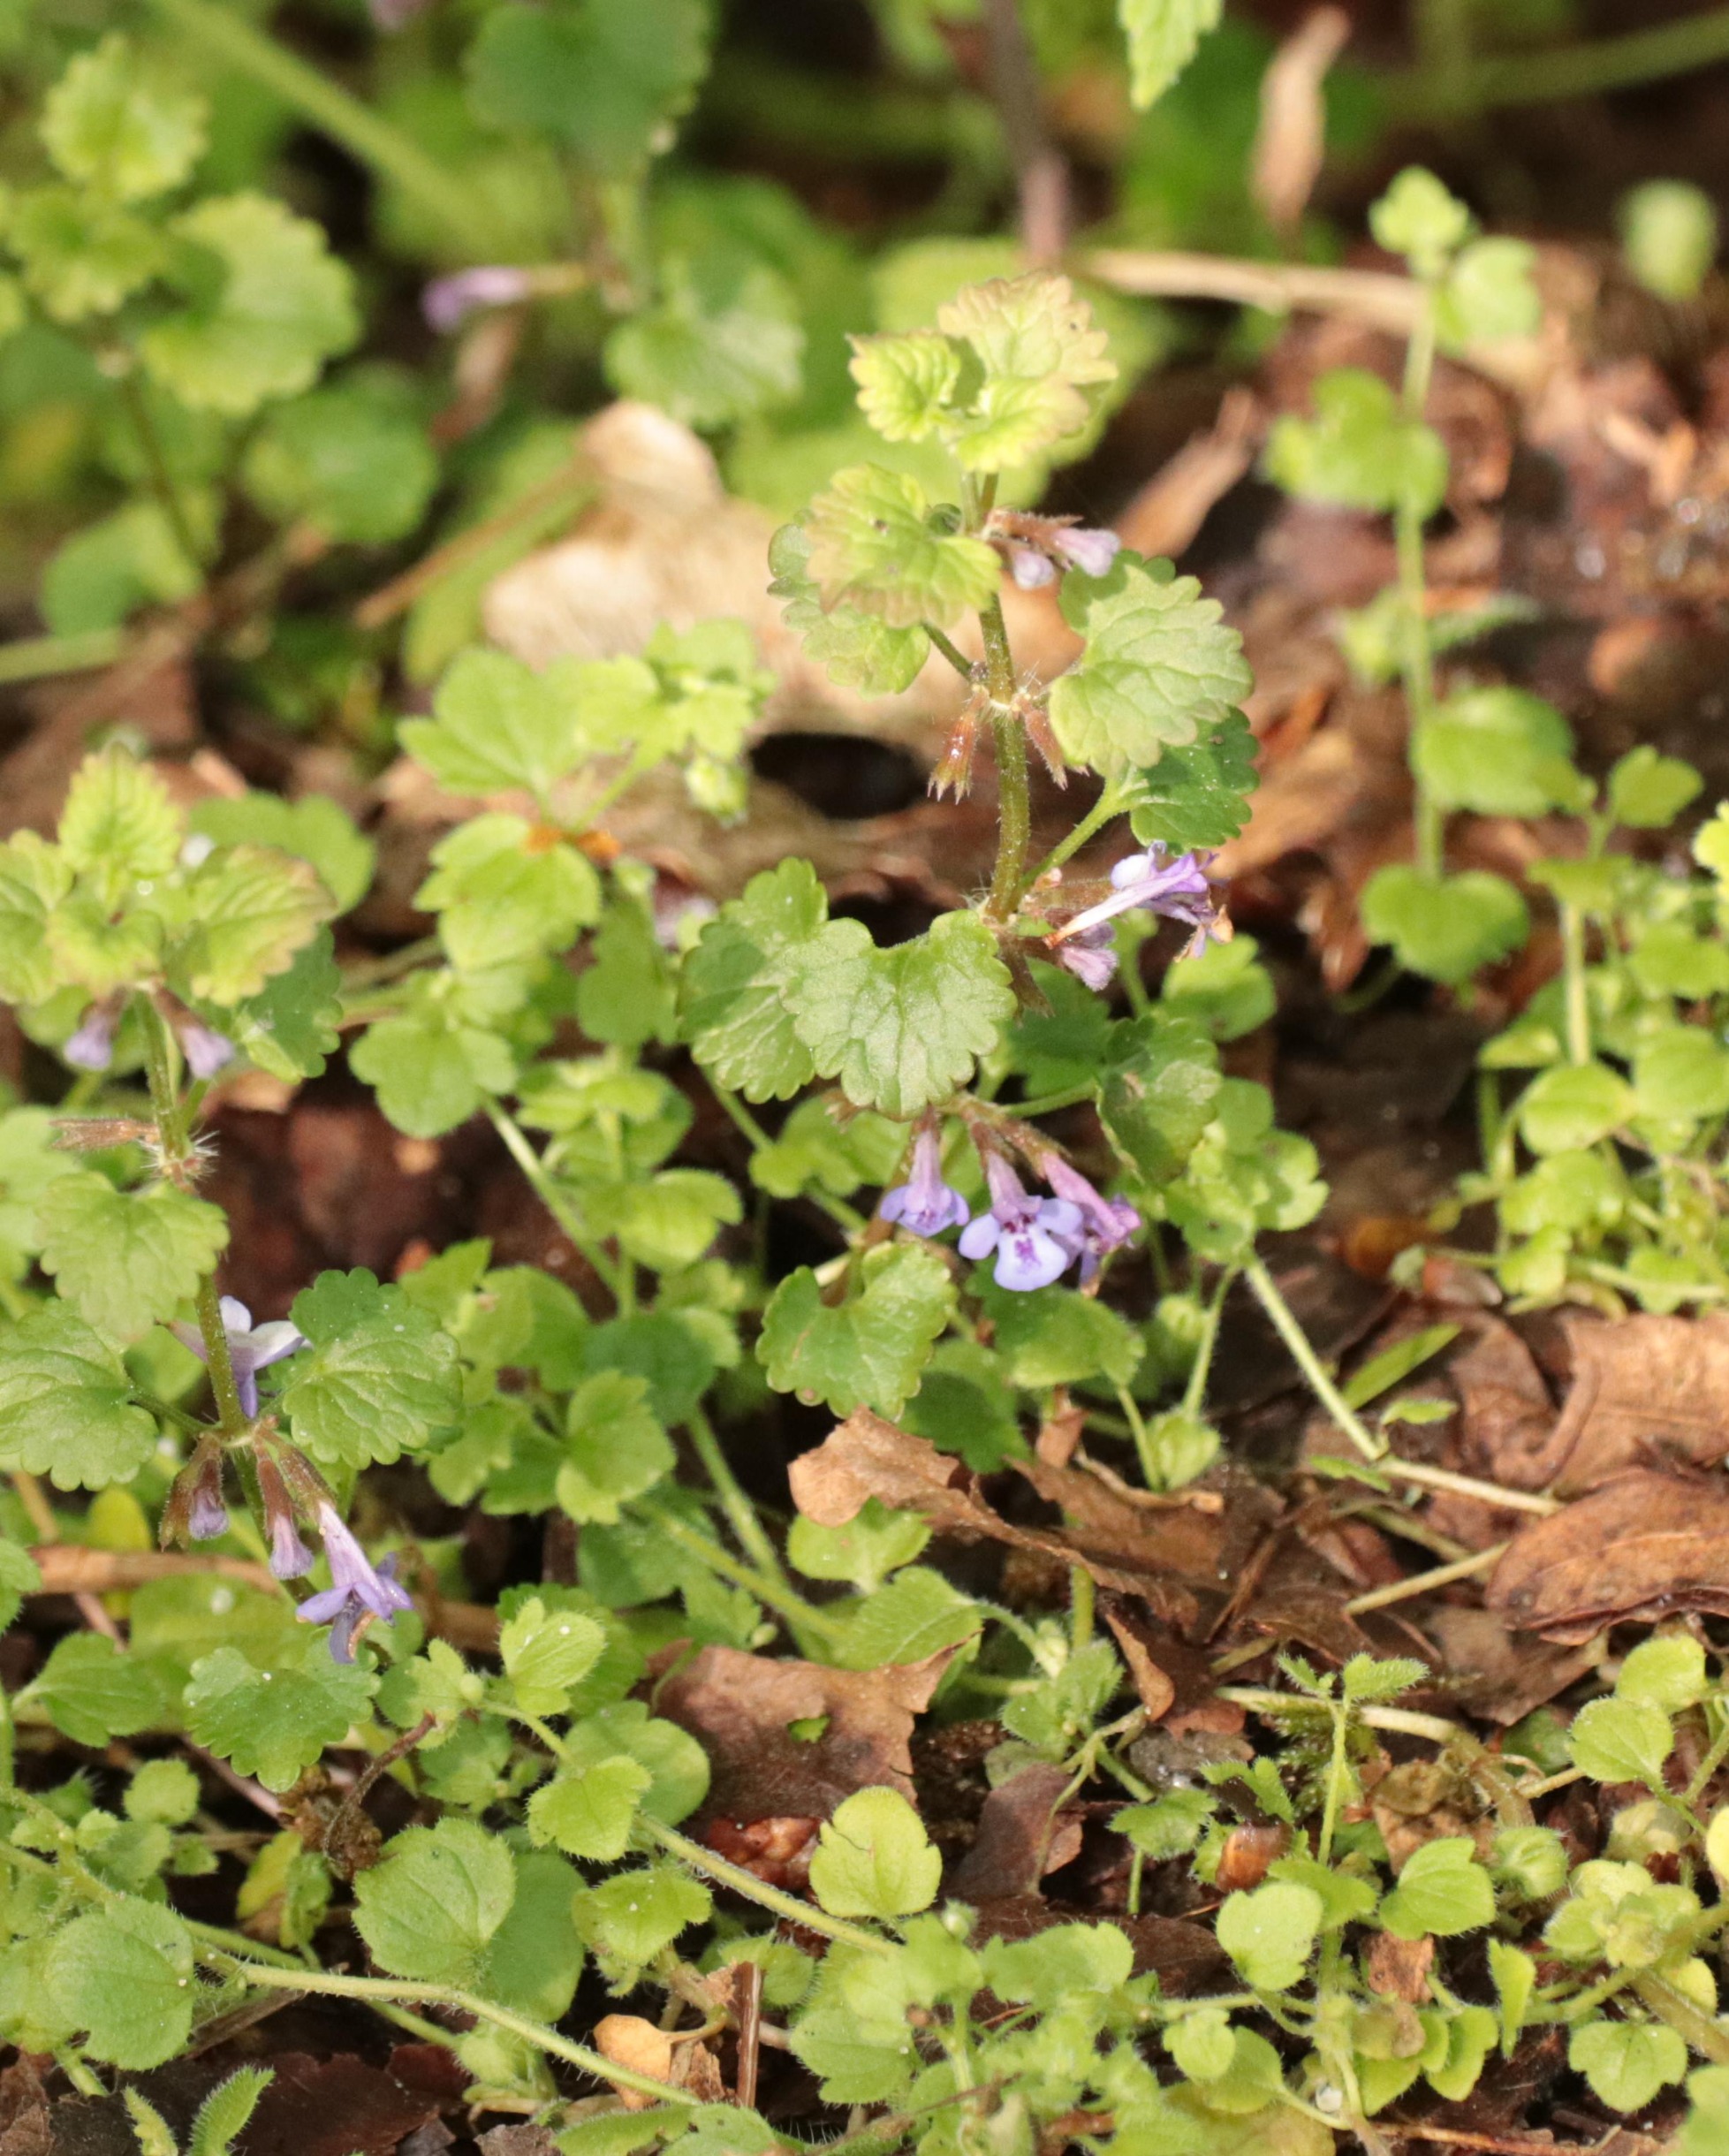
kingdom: Plantae
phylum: Tracheophyta
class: Magnoliopsida
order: Lamiales
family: Lamiaceae
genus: Glechoma
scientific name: Glechoma hederacea
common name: Korsknap
